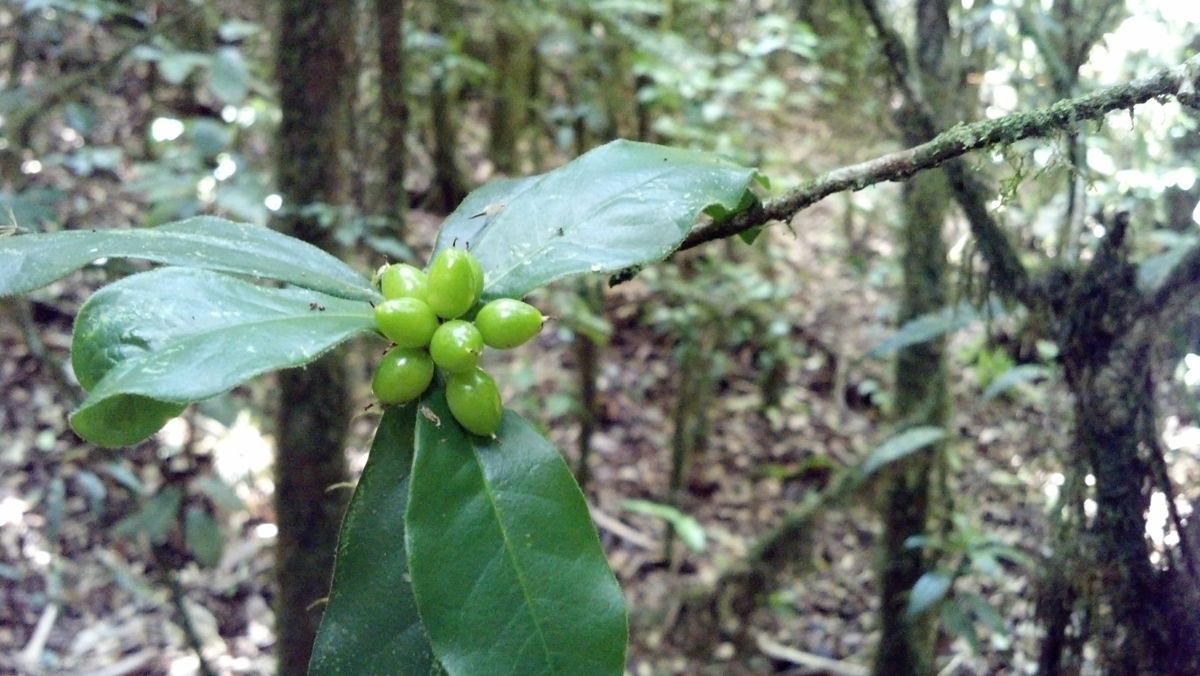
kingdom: Plantae
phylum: Tracheophyta
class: Magnoliopsida
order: Malvales
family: Thymelaeaceae
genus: Daphnopsis
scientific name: Daphnopsis selerorum
